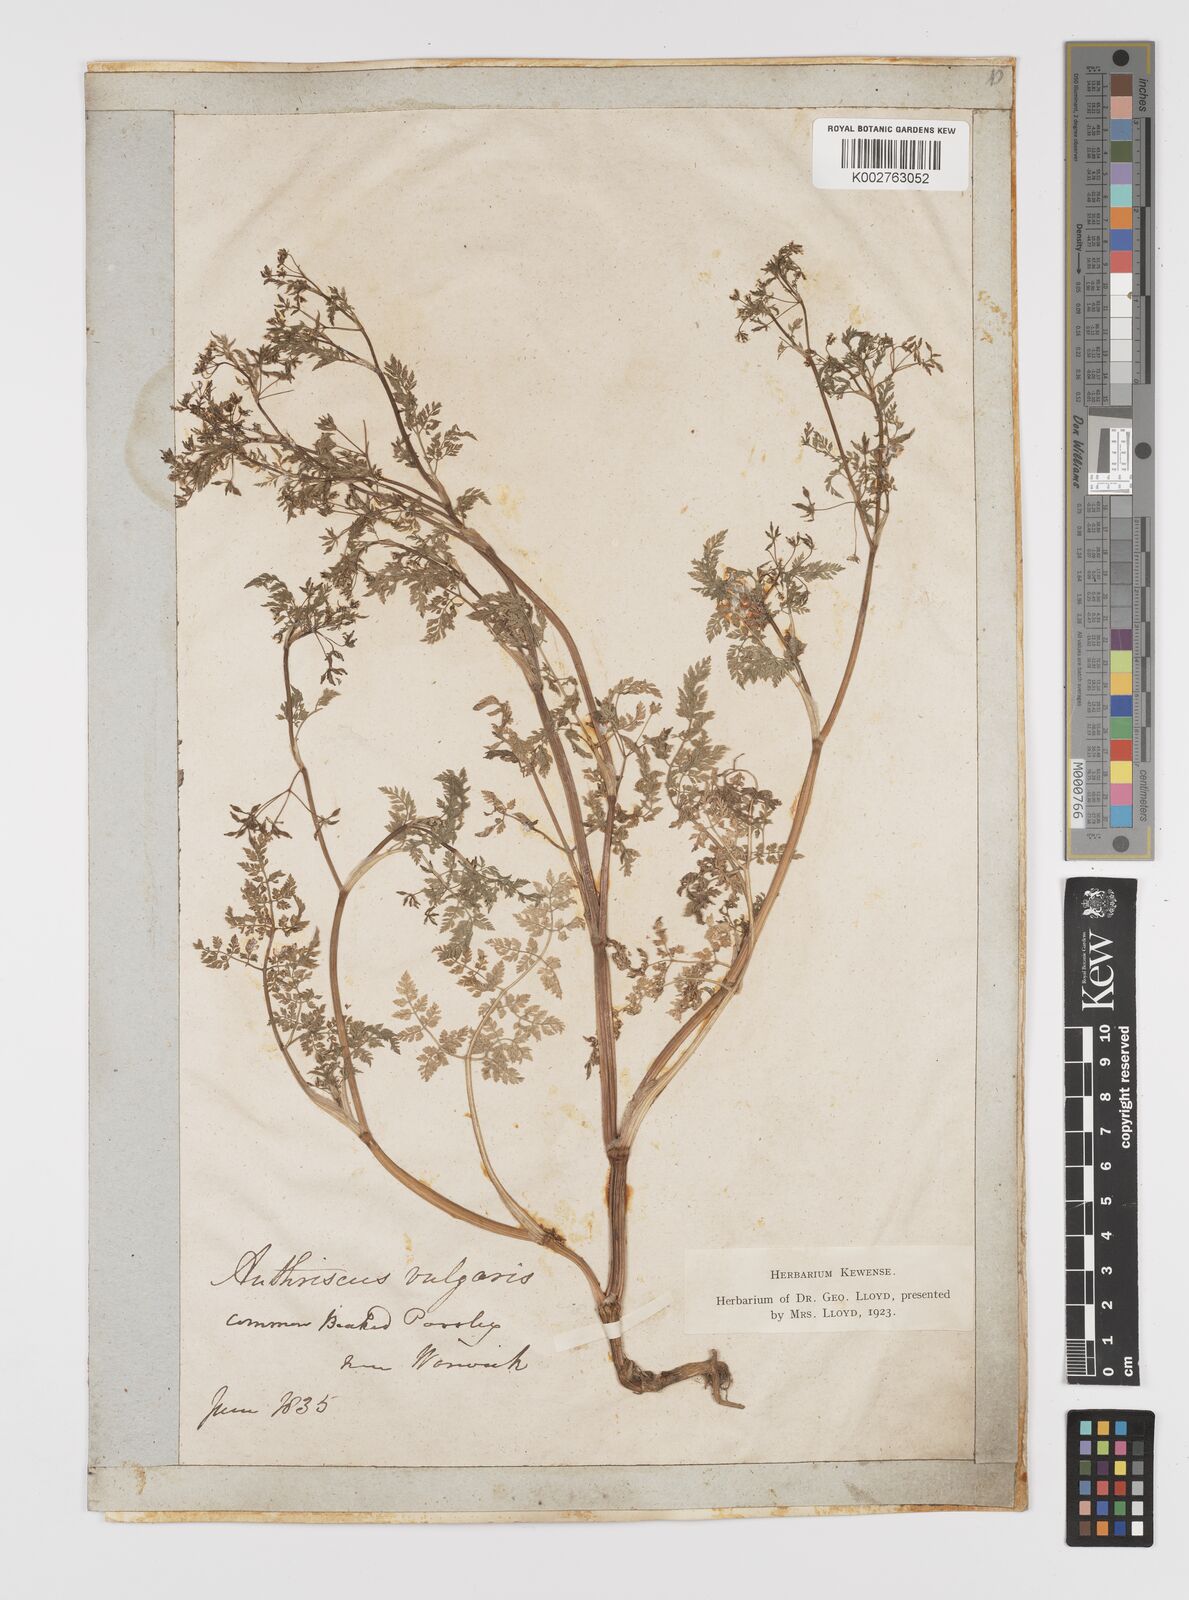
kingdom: Plantae
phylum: Tracheophyta
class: Magnoliopsida
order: Apiales
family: Apiaceae
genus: Anthriscus
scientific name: Anthriscus caucalis
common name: Bur chervil
